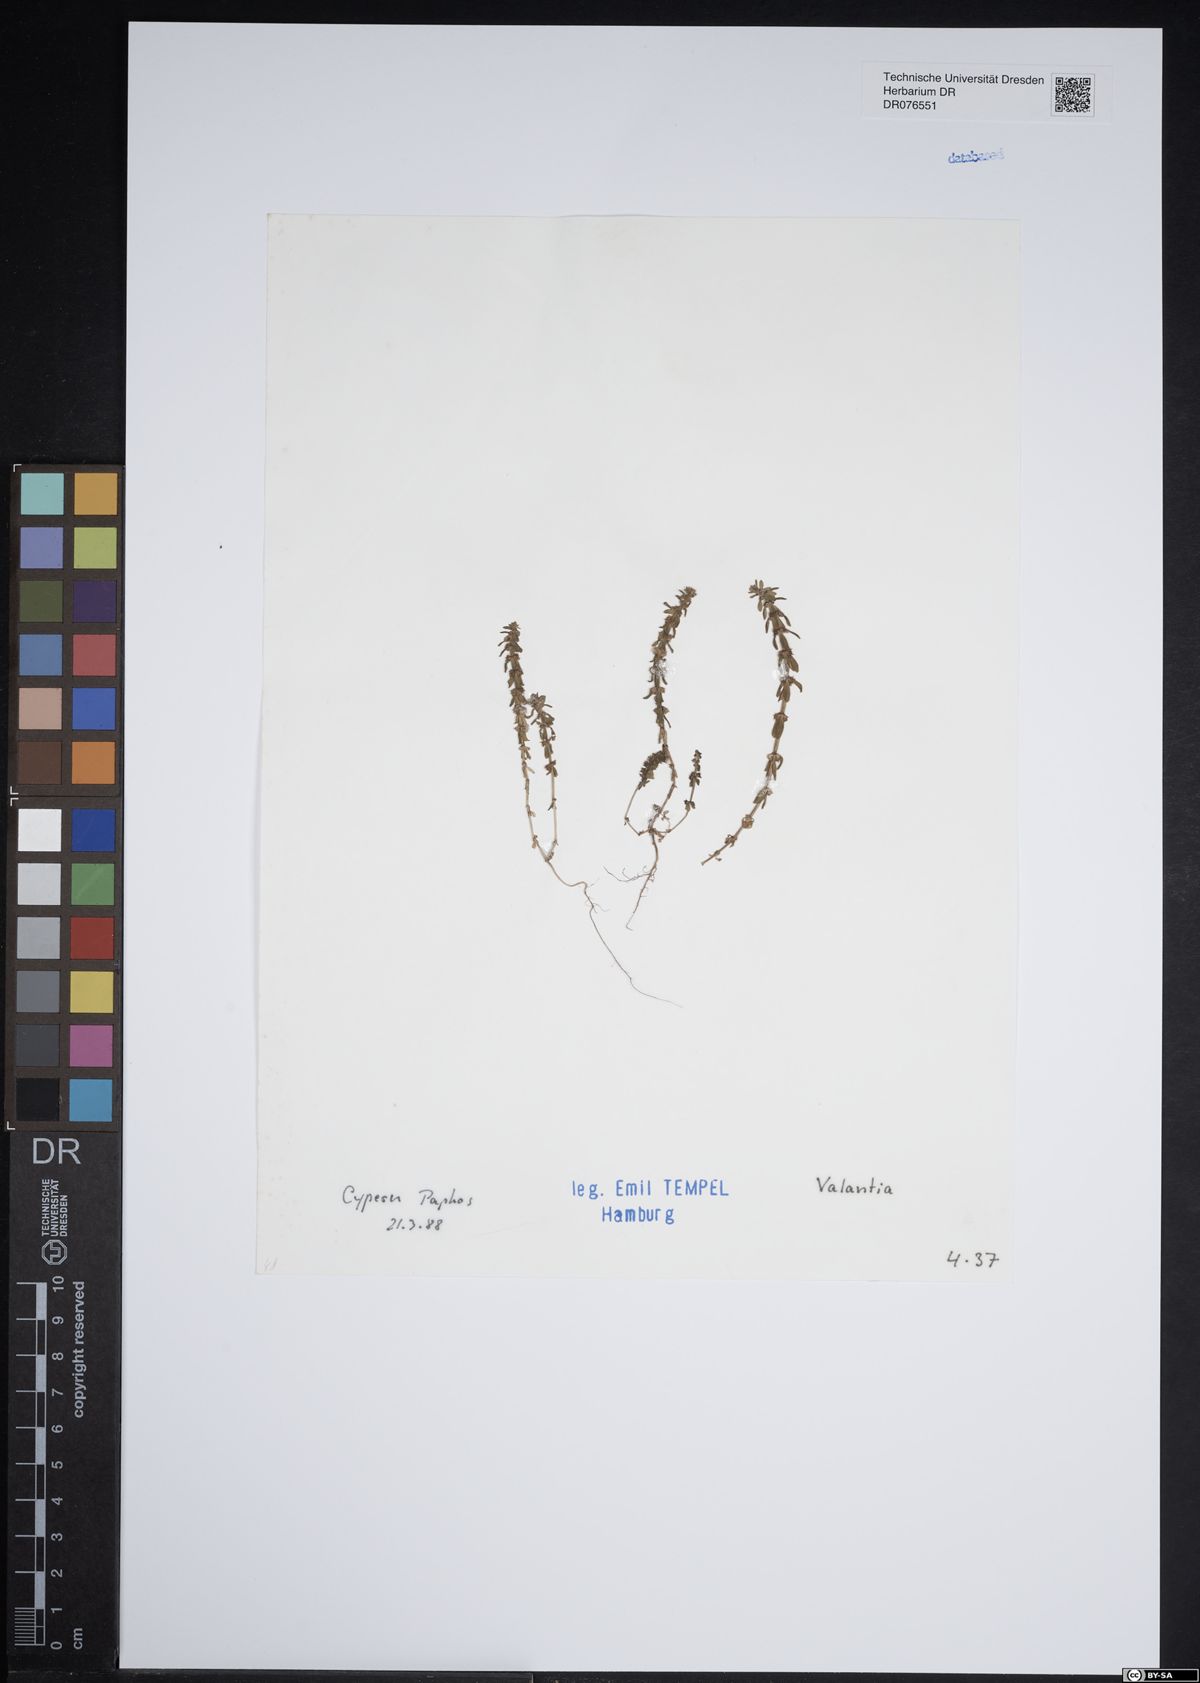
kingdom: Plantae
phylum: Tracheophyta
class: Magnoliopsida
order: Gentianales
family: Rubiaceae
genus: Valantia
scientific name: Valantia
